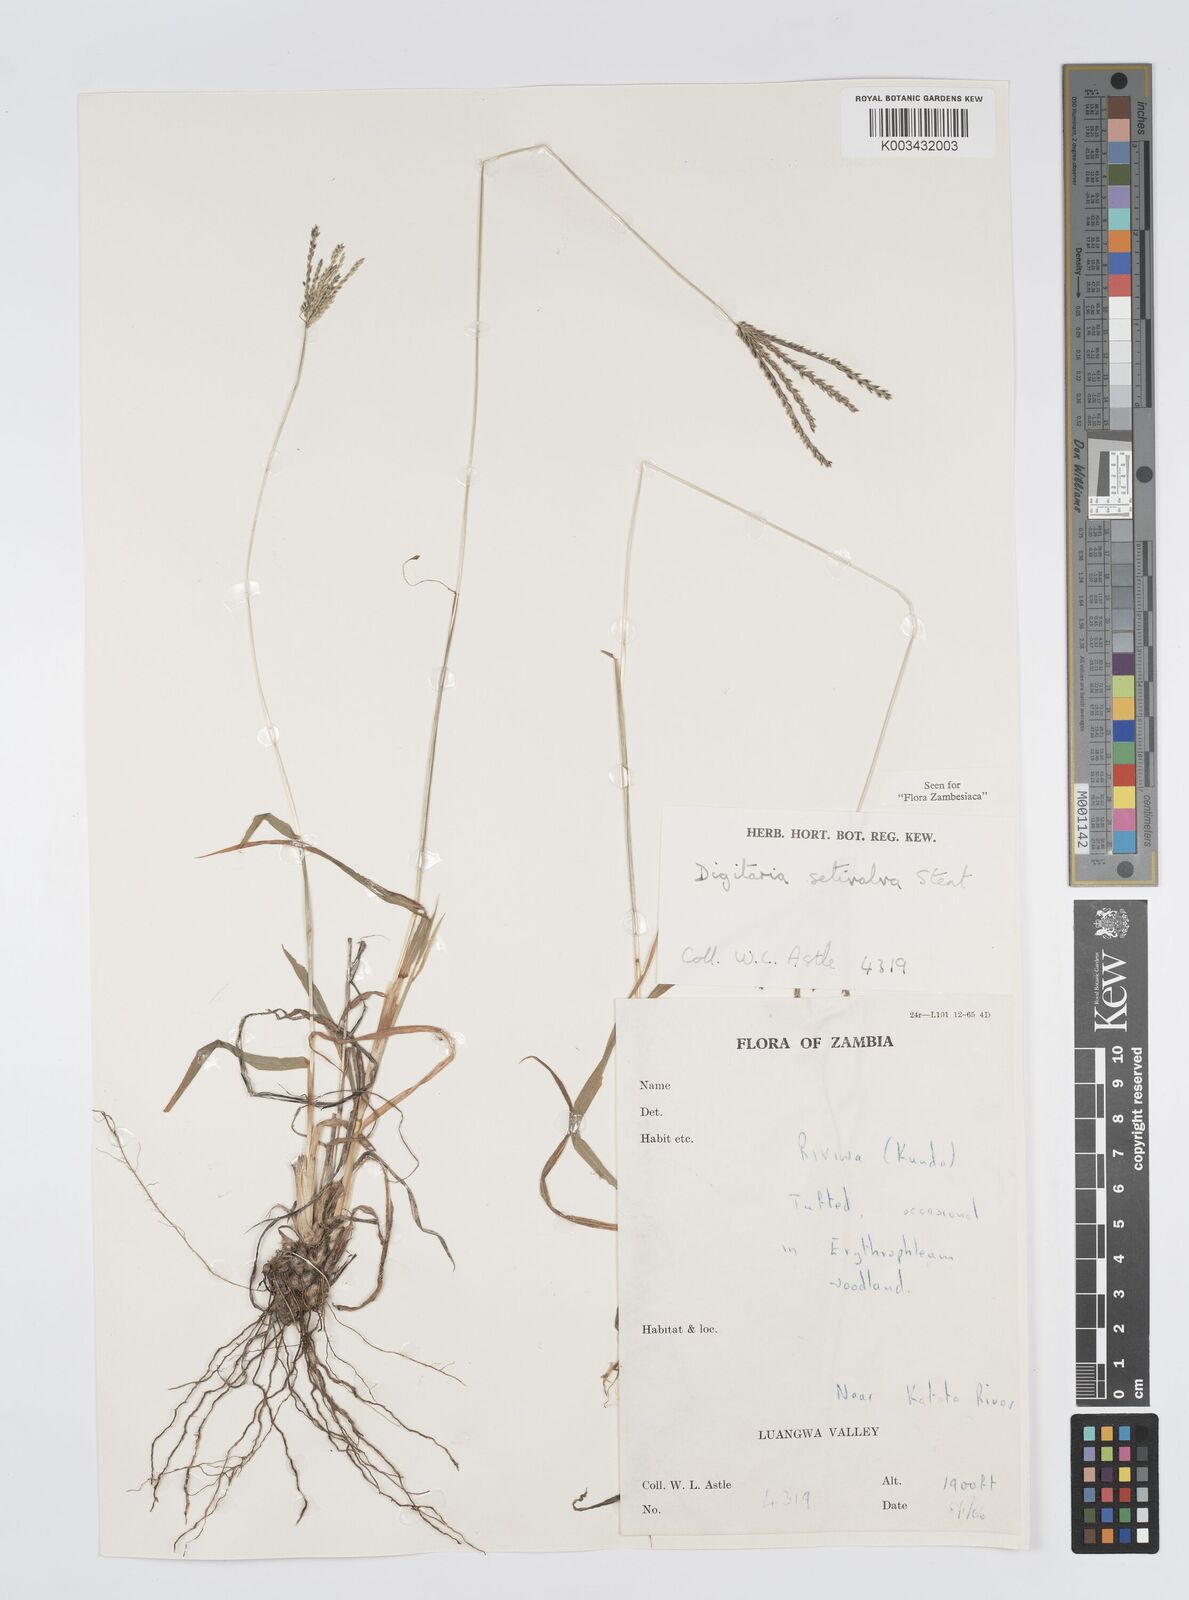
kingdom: Plantae
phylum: Tracheophyta
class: Liliopsida
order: Poales
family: Poaceae
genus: Digitaria
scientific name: Digitaria milanjiana
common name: Madagascar crabgrass
